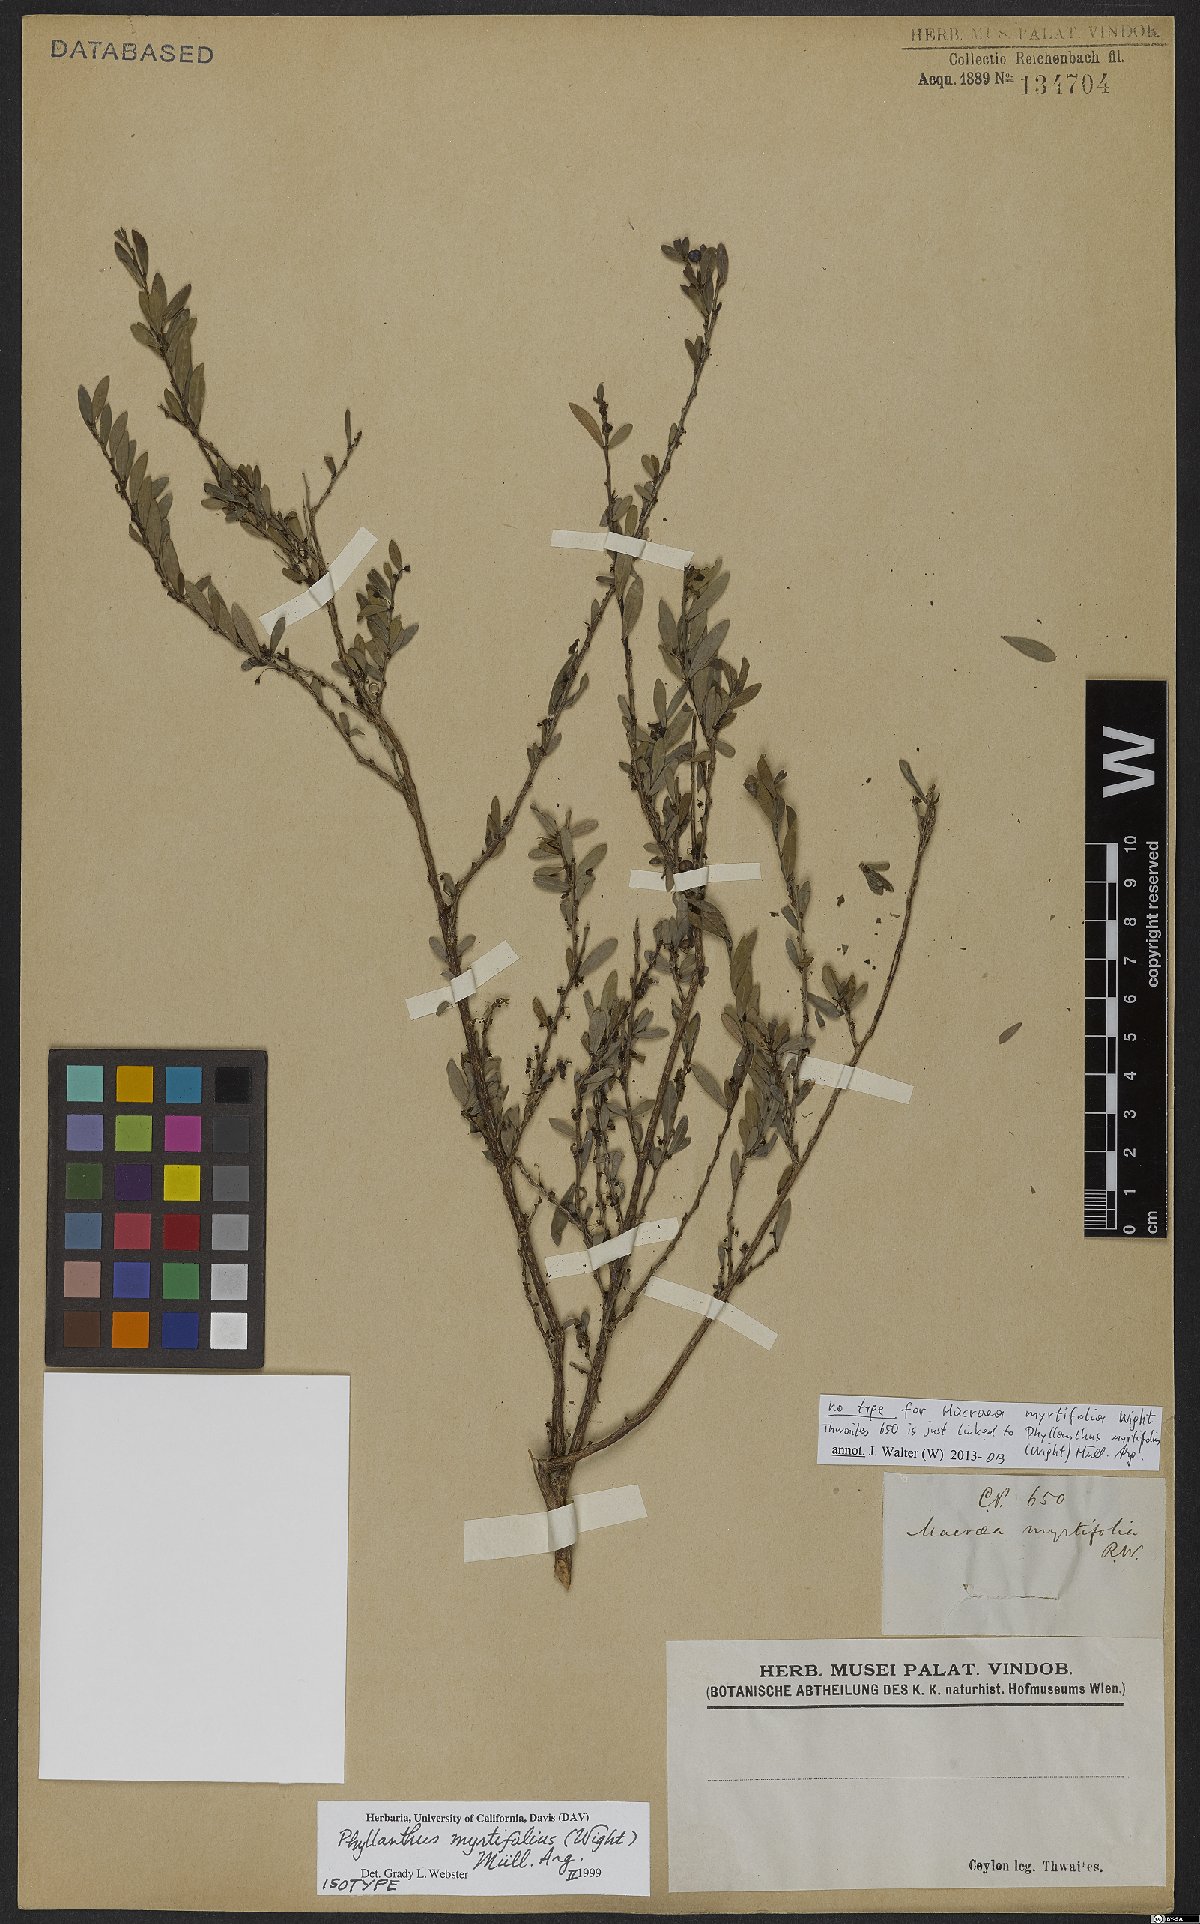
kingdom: Plantae
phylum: Tracheophyta
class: Magnoliopsida
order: Malpighiales
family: Phyllanthaceae
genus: Phyllanthus
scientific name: Phyllanthus myrtifolius
